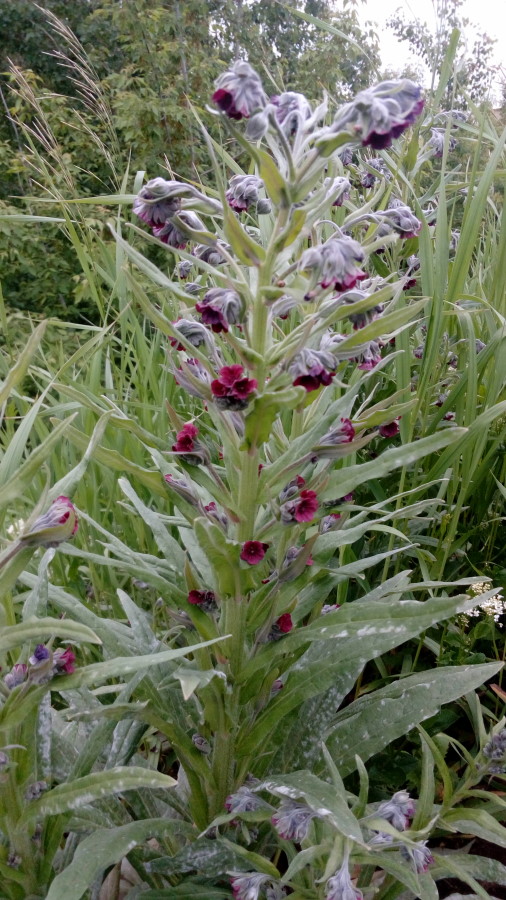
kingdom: Plantae
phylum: Tracheophyta
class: Magnoliopsida
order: Boraginales
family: Boraginaceae
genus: Nonea
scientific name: Nonea pulla
